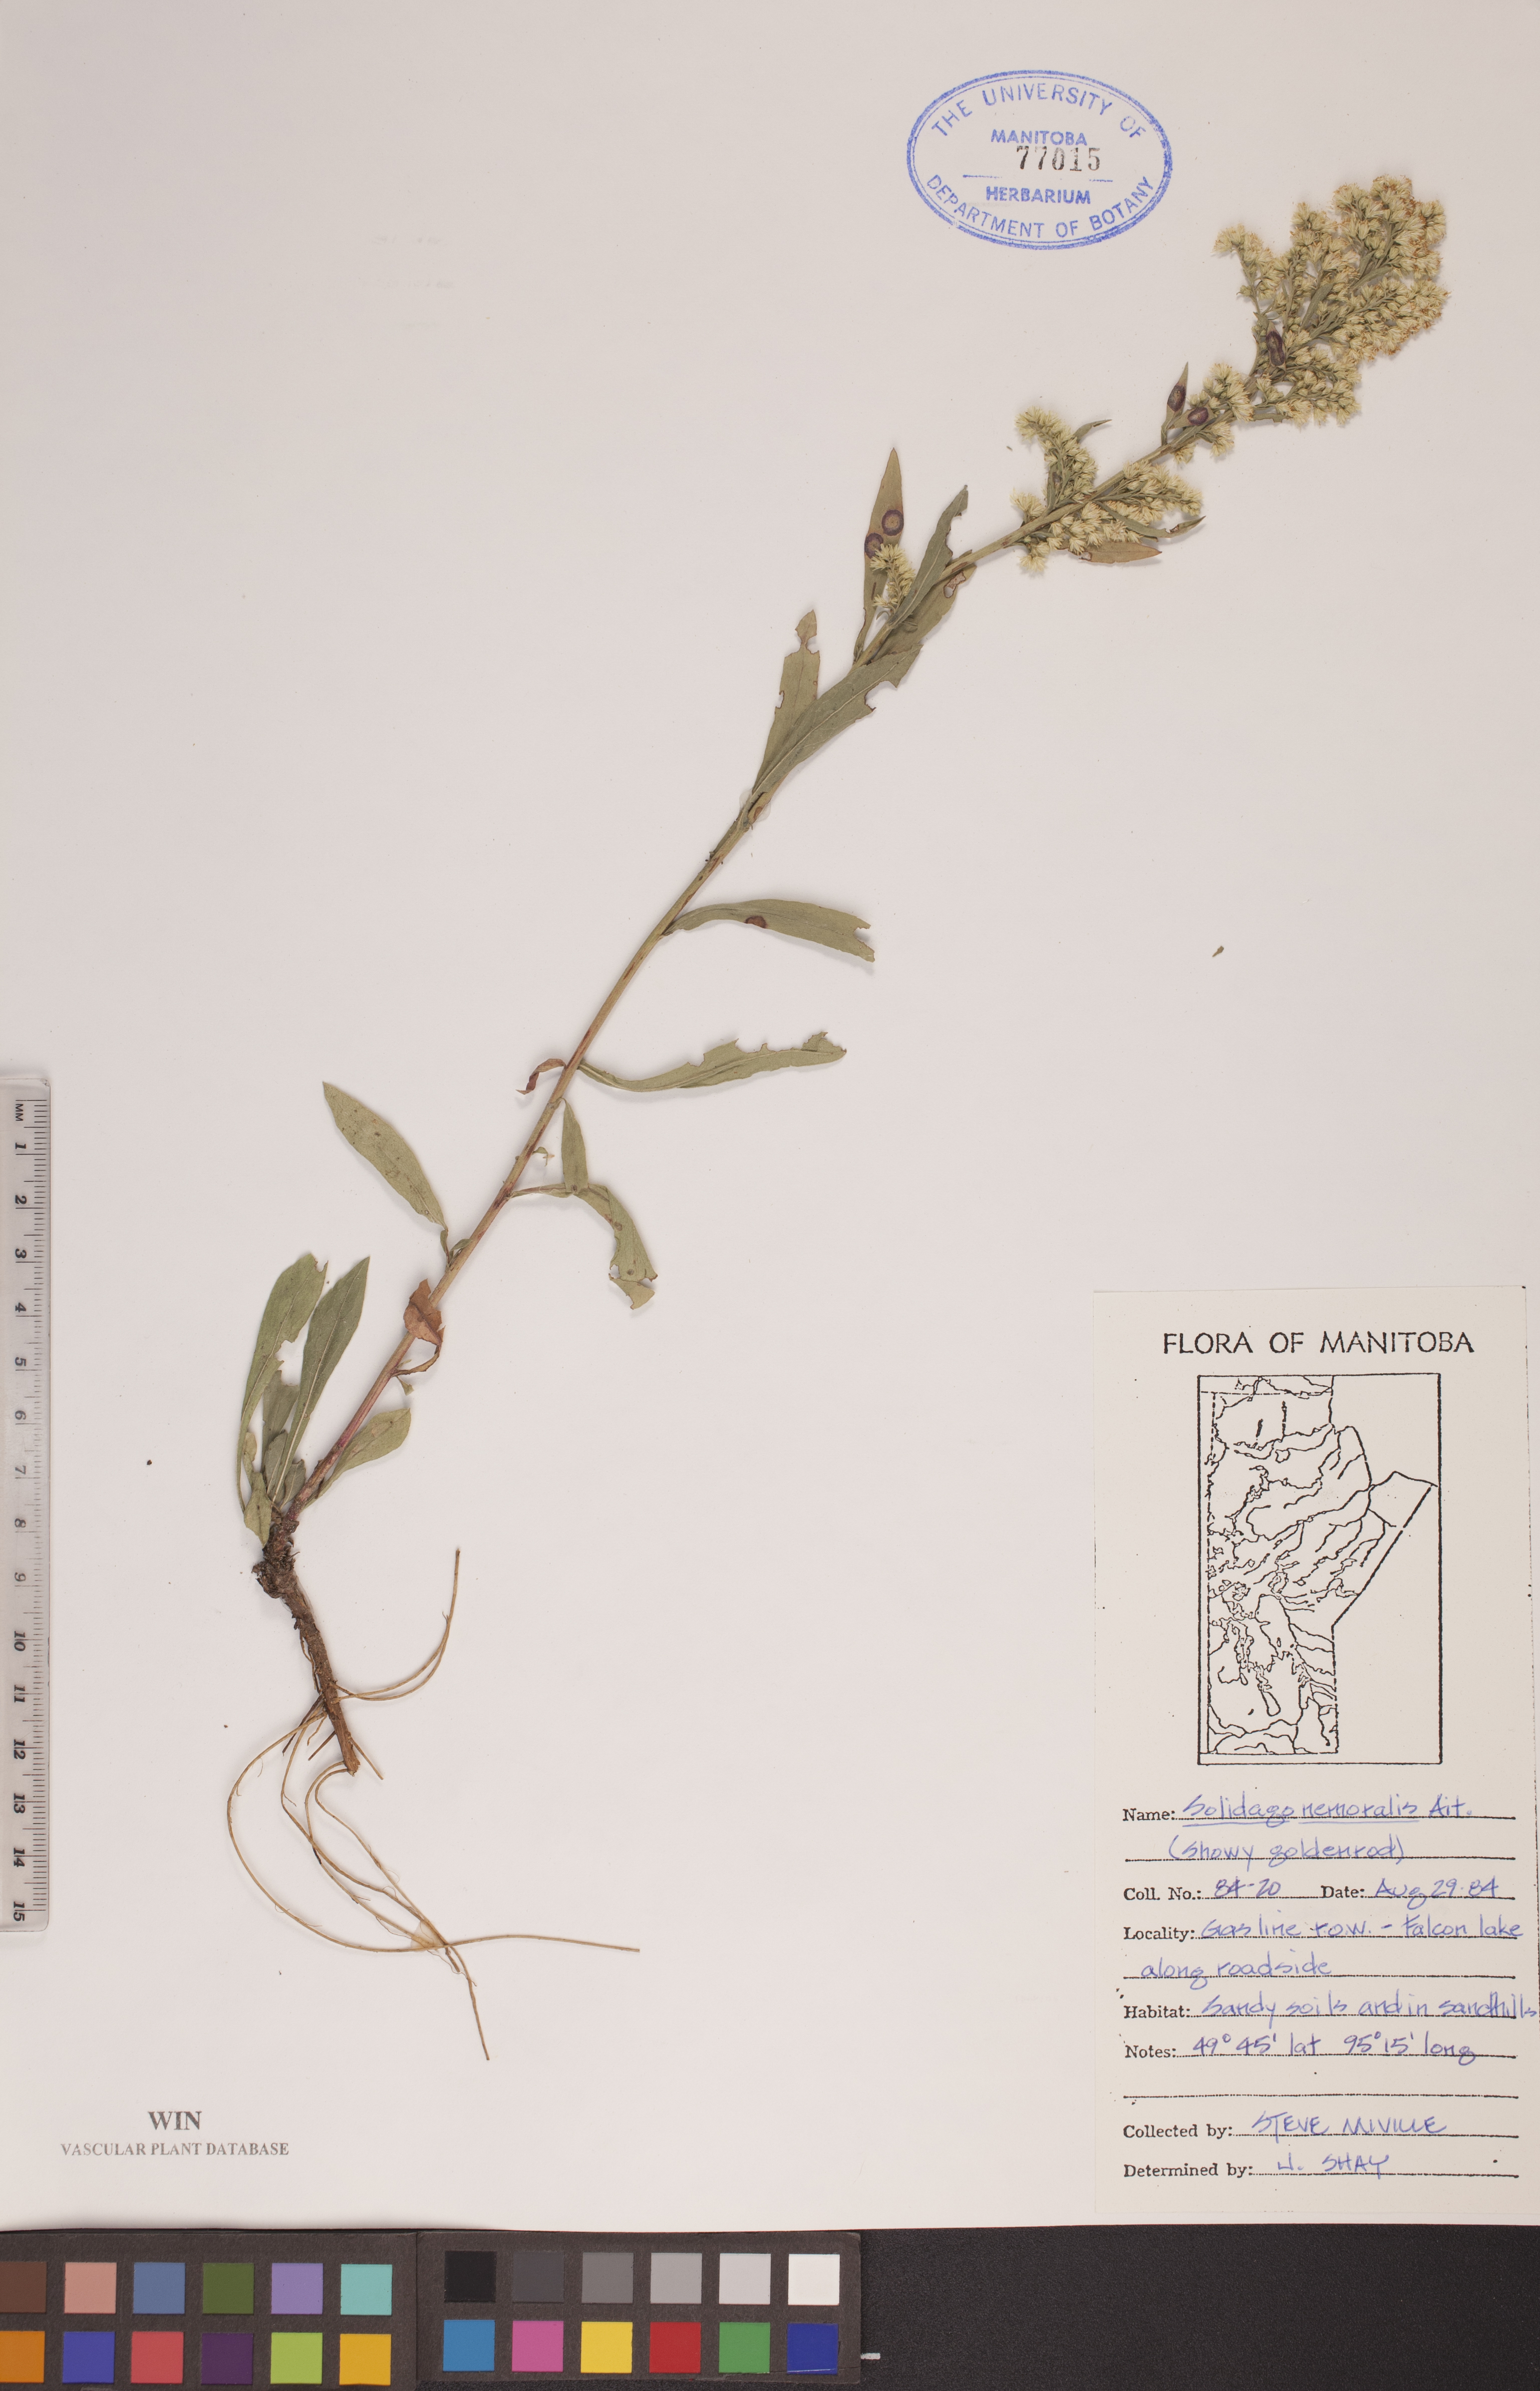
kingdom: Plantae
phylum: Tracheophyta
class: Magnoliopsida
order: Asterales
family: Asteraceae
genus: Solidago
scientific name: Solidago nemoralis
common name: Grey goldenrod
